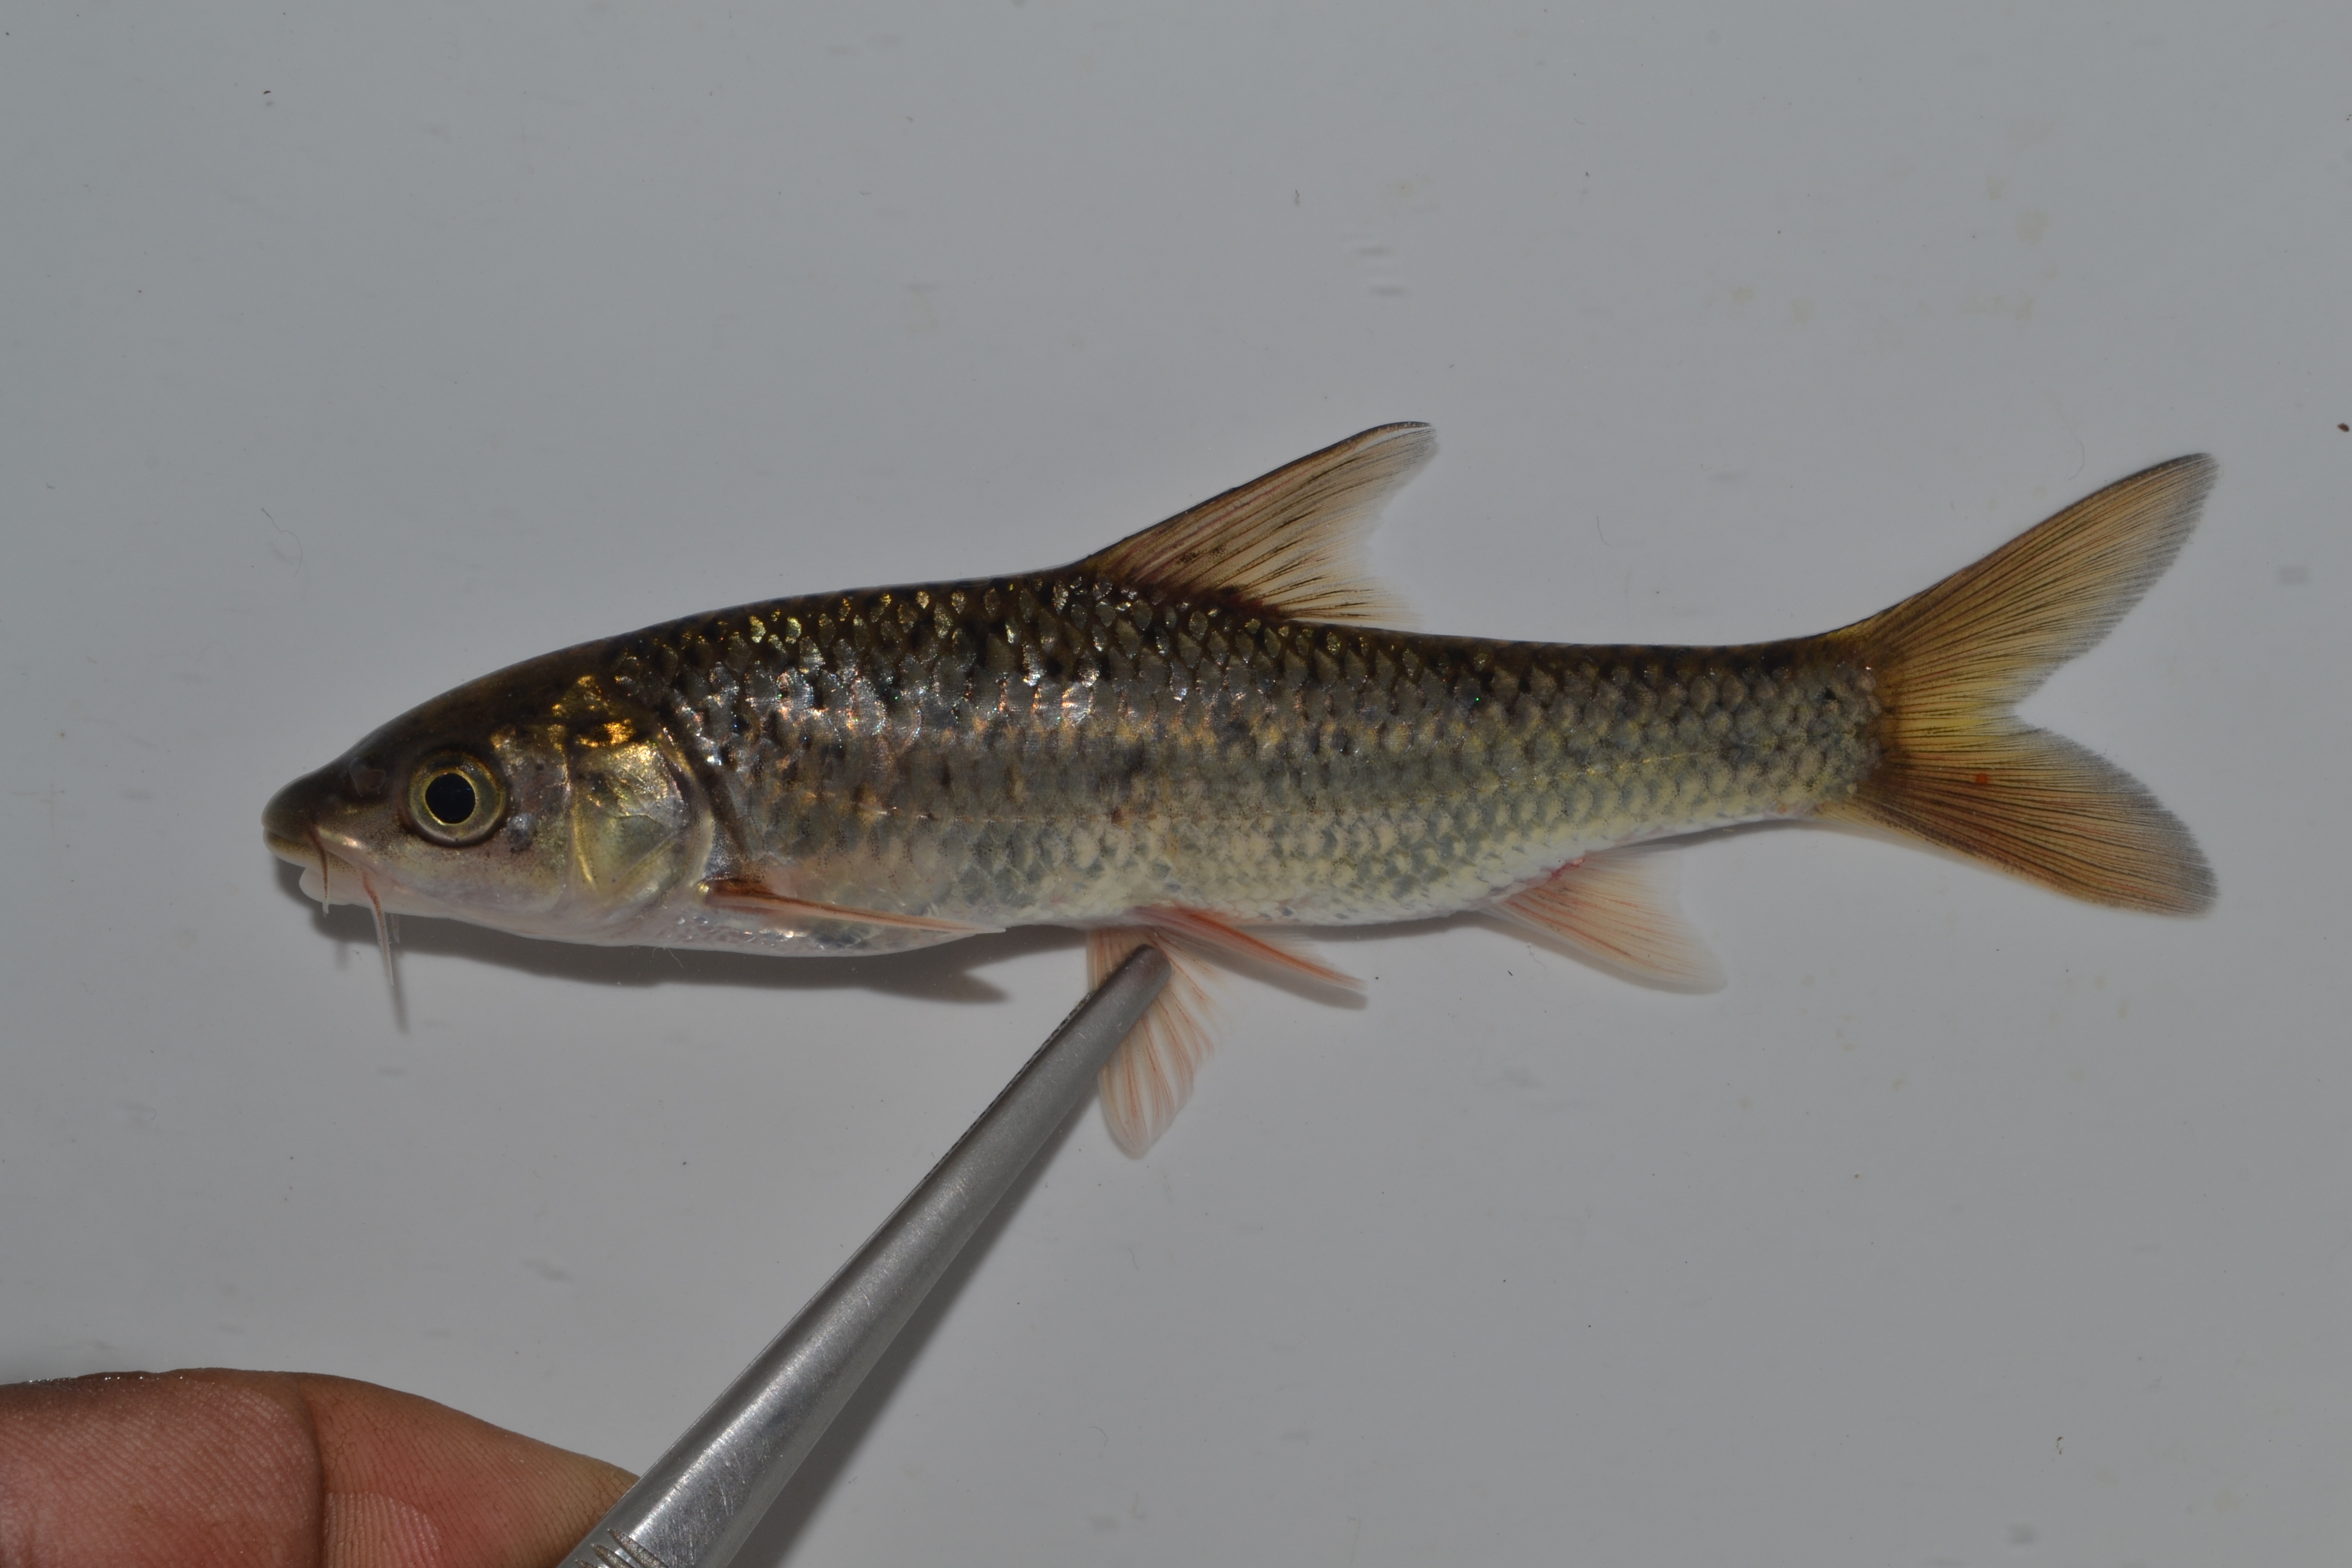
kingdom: Animalia
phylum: Chordata
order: Cypriniformes
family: Cyprinidae
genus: Labeobarbus
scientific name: Labeobarbus natalensis
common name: Scaly
